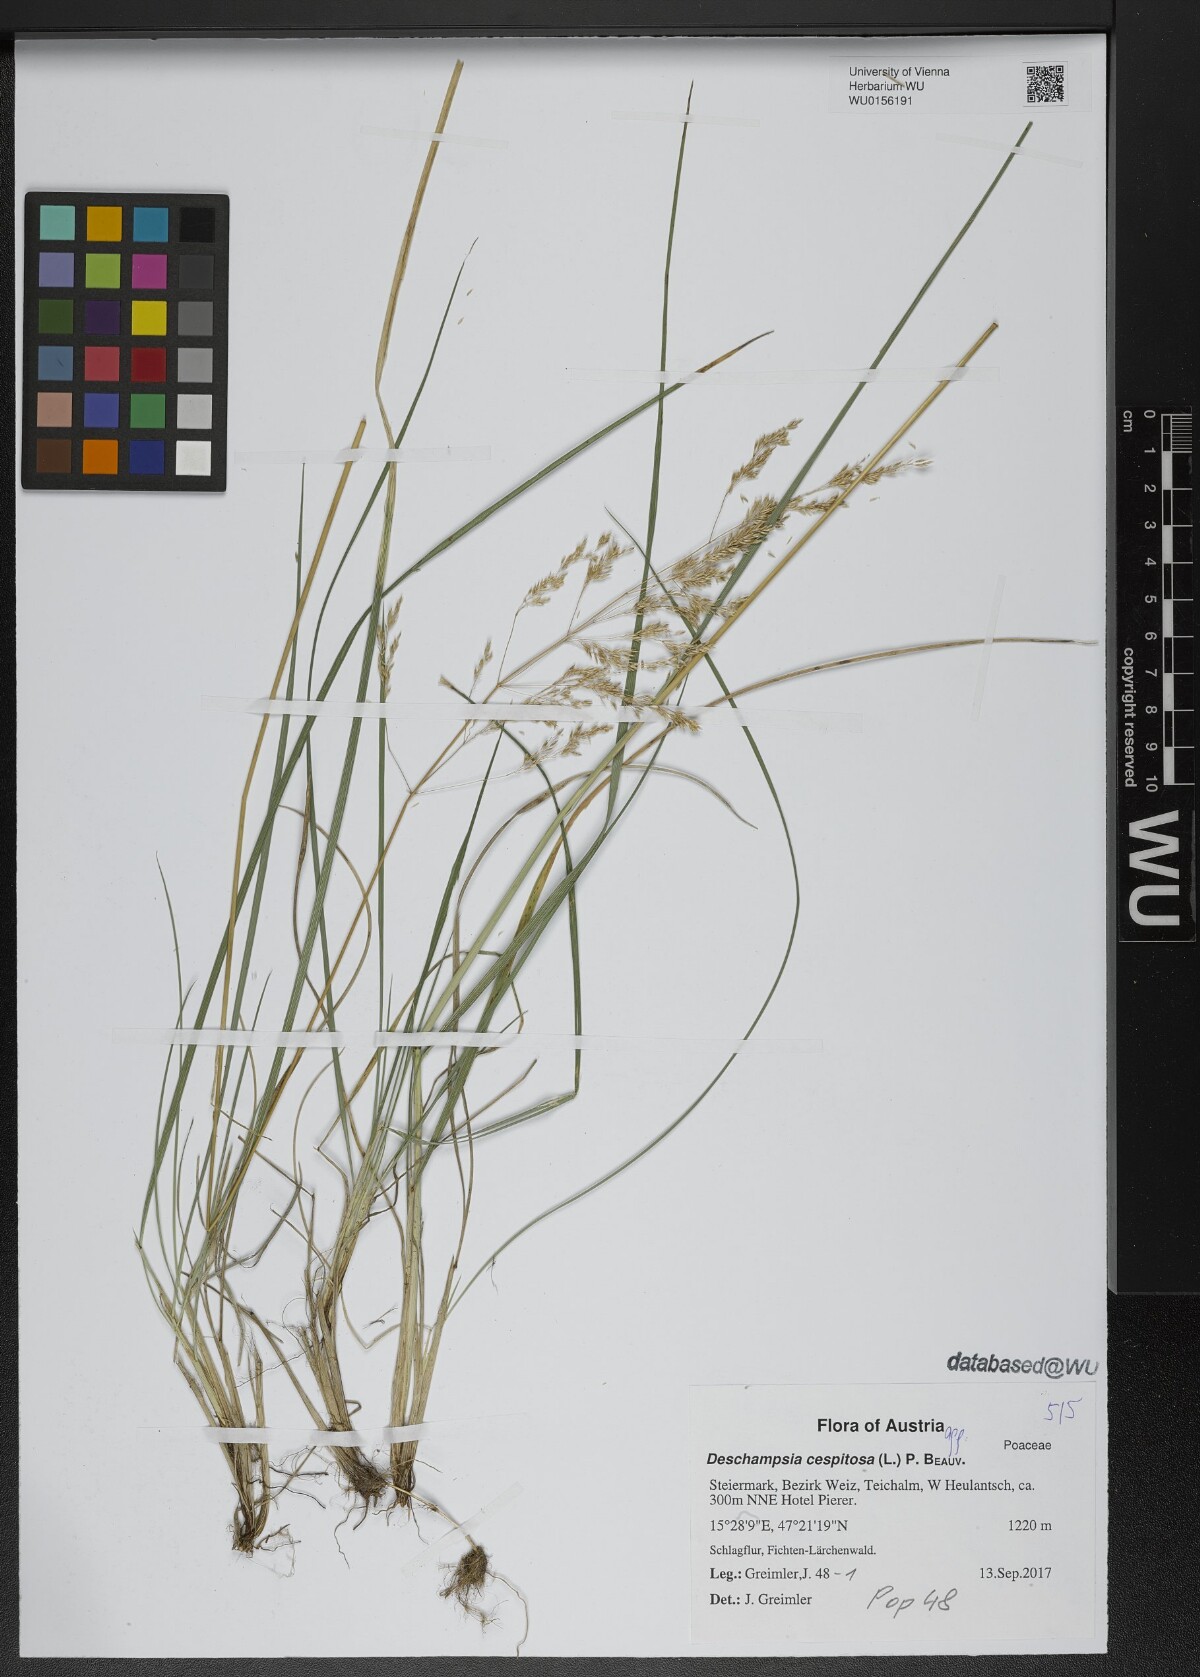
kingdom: Plantae
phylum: Tracheophyta
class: Liliopsida
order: Poales
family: Poaceae
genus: Deschampsia
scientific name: Deschampsia cespitosa
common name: Tufted hair-grass
